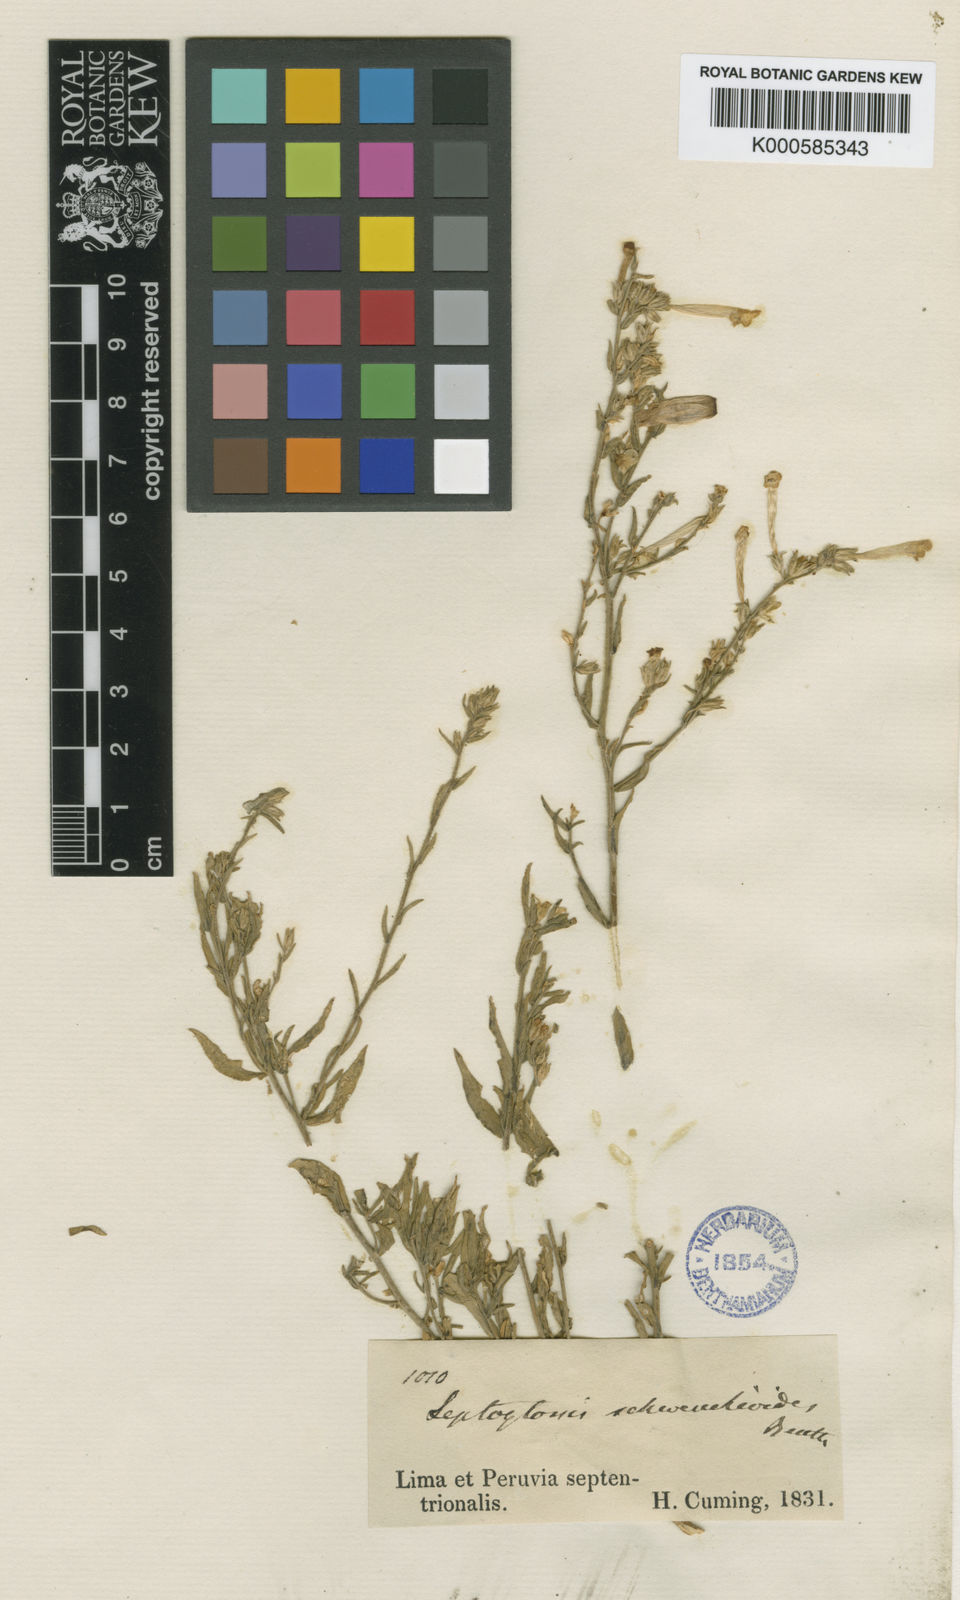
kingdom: Plantae
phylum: Tracheophyta
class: Magnoliopsida
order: Solanales
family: Solanaceae
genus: Leptoglossis
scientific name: Leptoglossis
